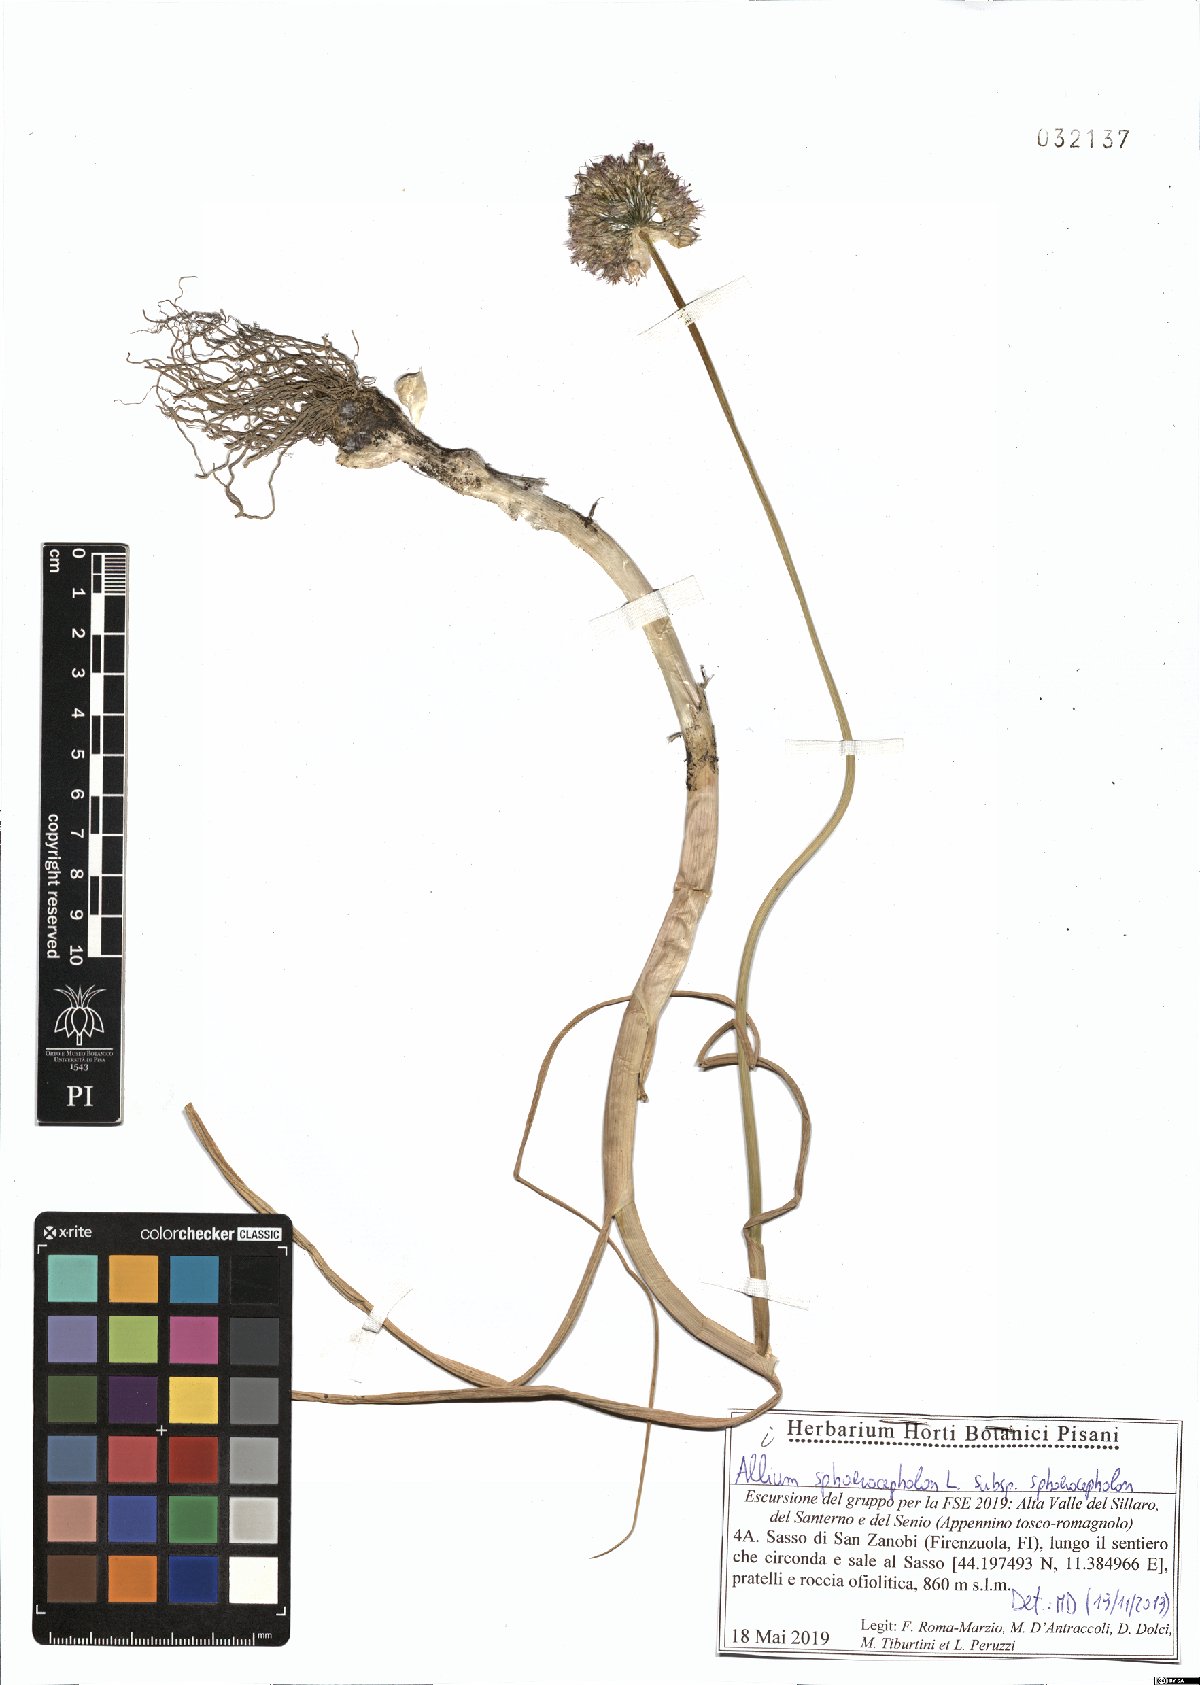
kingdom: Plantae
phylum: Tracheophyta
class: Liliopsida
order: Asparagales
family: Amaryllidaceae
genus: Allium
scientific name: Allium sphaerocephalon
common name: Round-headed leek
